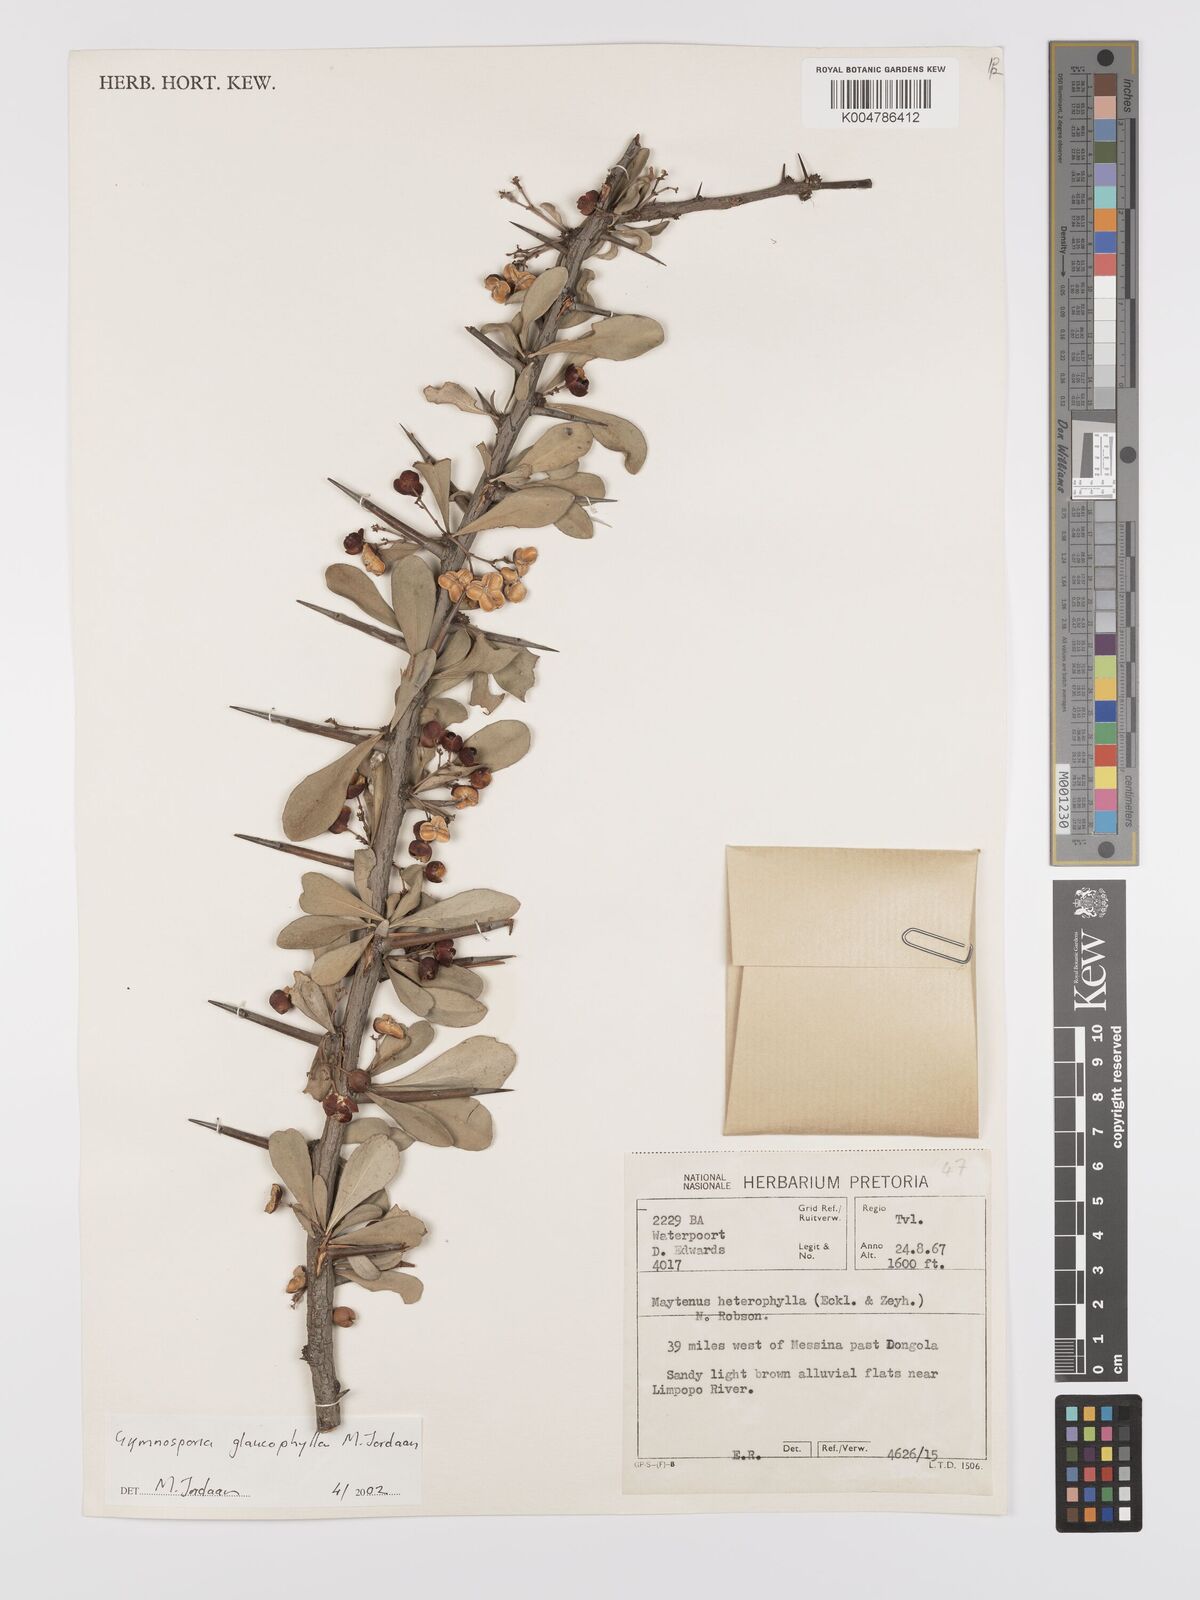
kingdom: Plantae
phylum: Tracheophyta
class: Magnoliopsida
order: Celastrales
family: Celastraceae
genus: Gymnosporia
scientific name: Gymnosporia glaucophylla
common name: Blue spike-thorn
